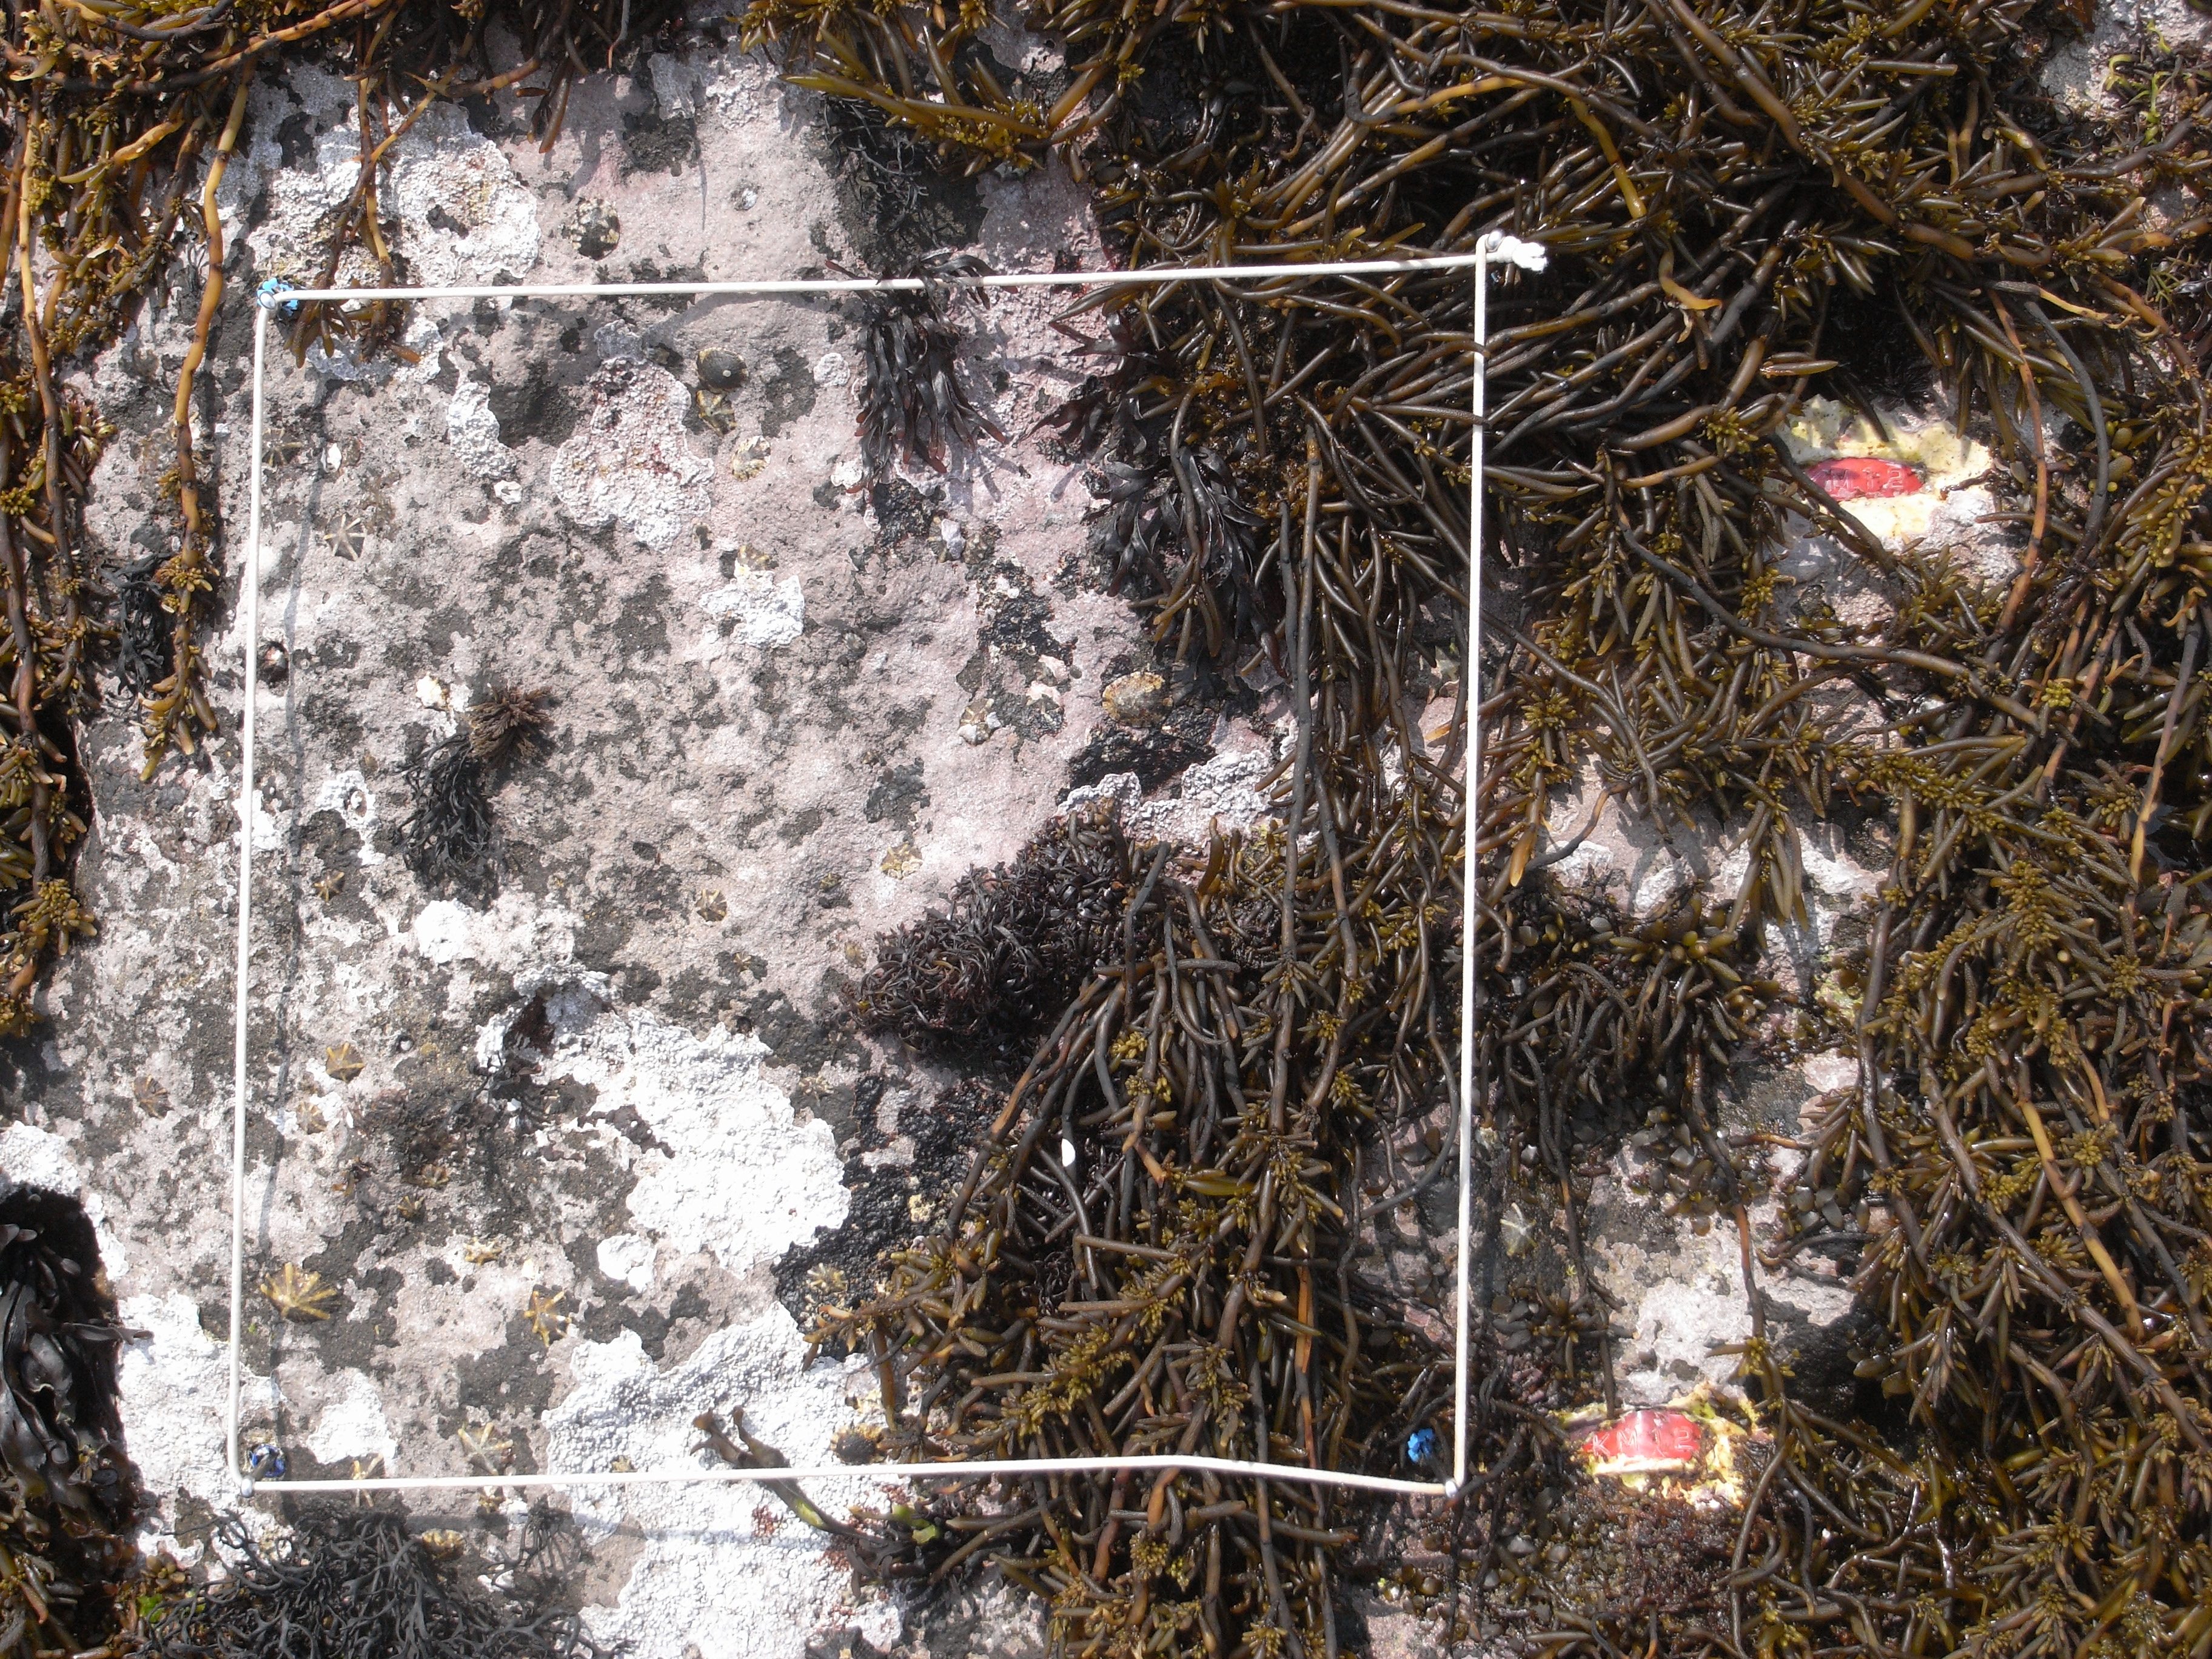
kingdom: Animalia
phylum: Arthropoda
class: Maxillopoda
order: Sessilia
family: Chthamalidae
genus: Chthamalus
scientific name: Chthamalus challengeri
